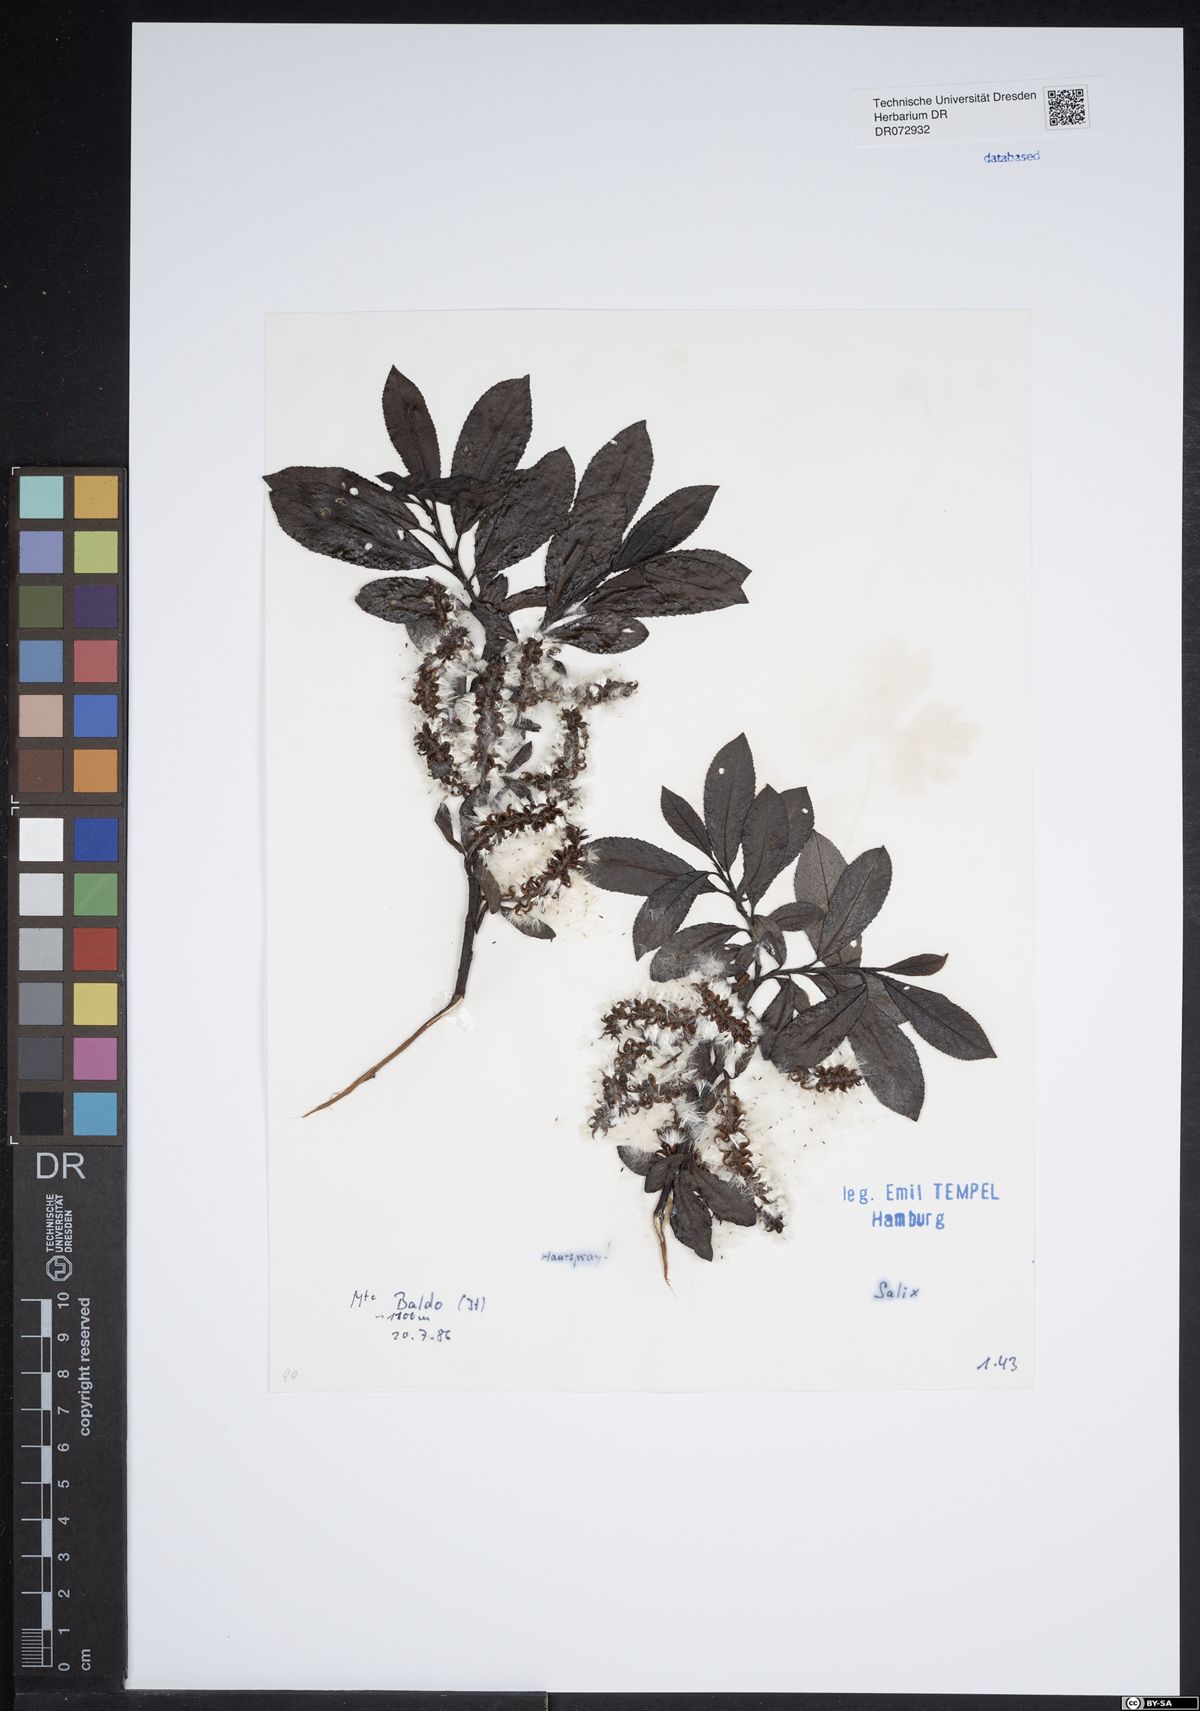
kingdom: Plantae
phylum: Tracheophyta
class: Magnoliopsida
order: Malpighiales
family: Salicaceae
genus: Salix
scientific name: Salix
